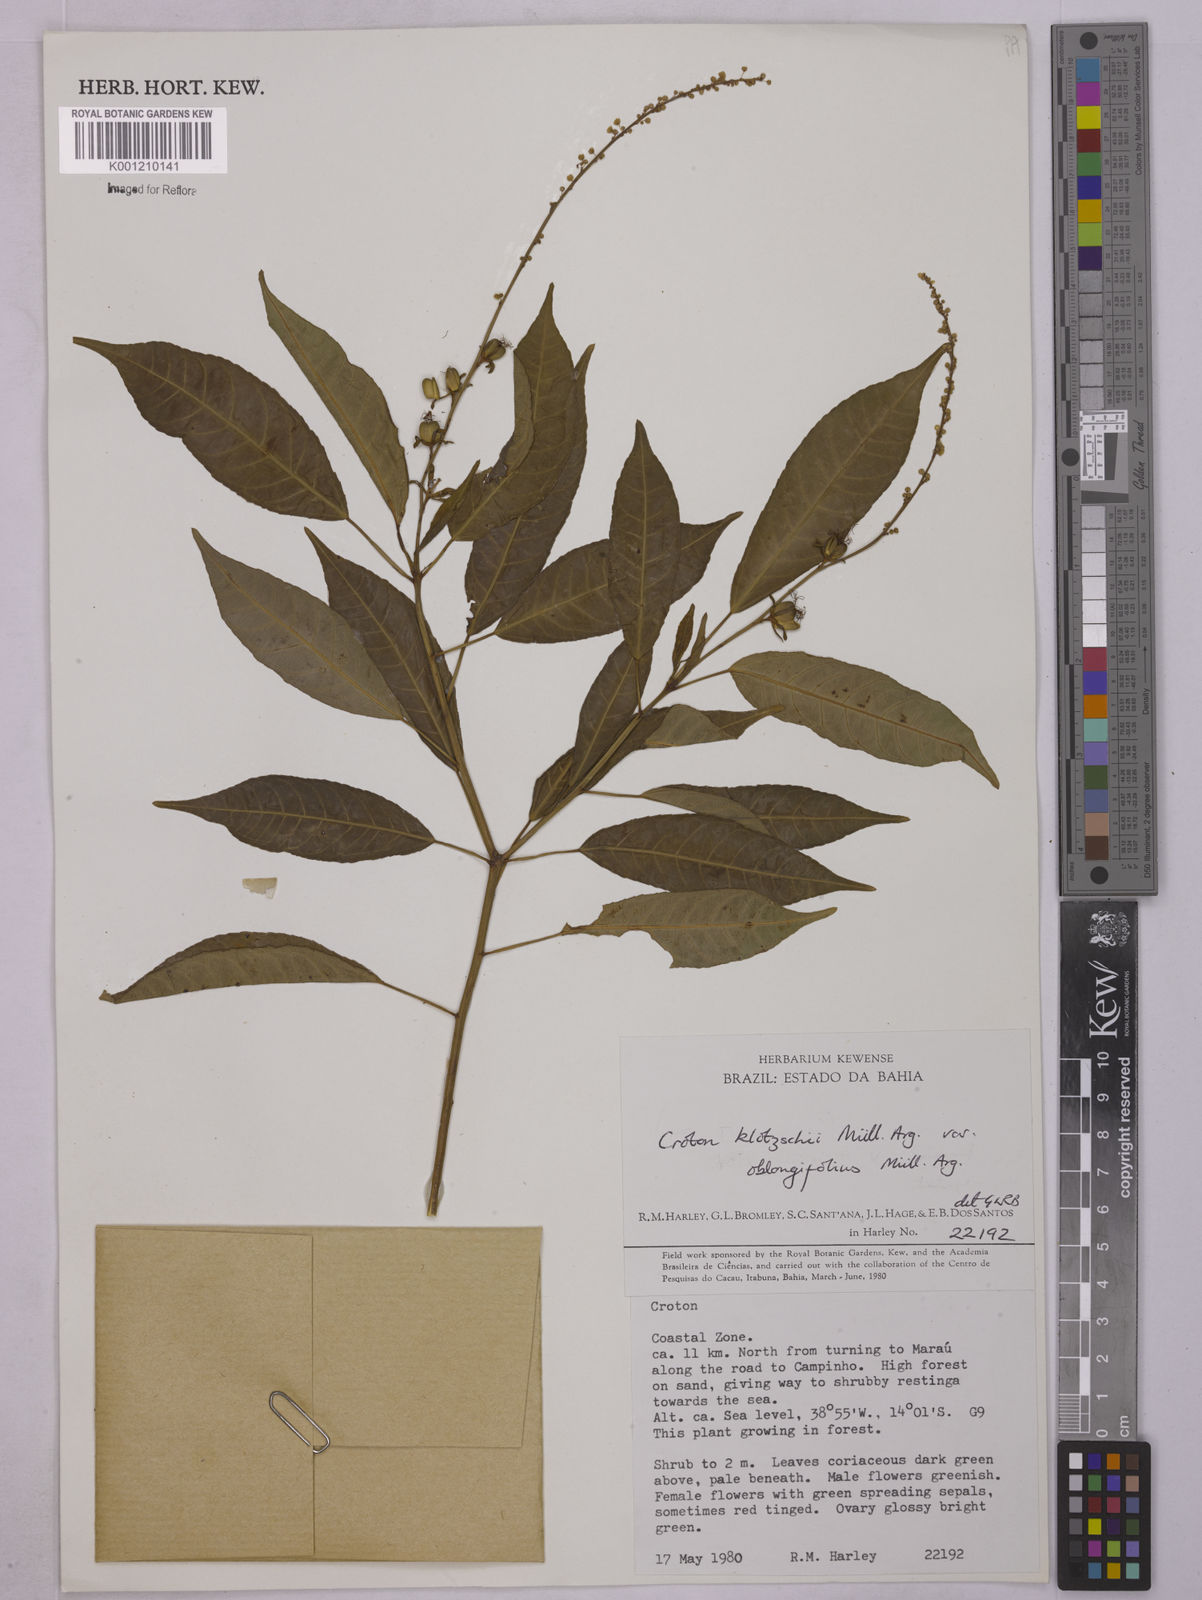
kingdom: Plantae
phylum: Tracheophyta
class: Magnoliopsida
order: Malpighiales
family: Euphorbiaceae
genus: Astraea
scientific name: Astraea macroura
